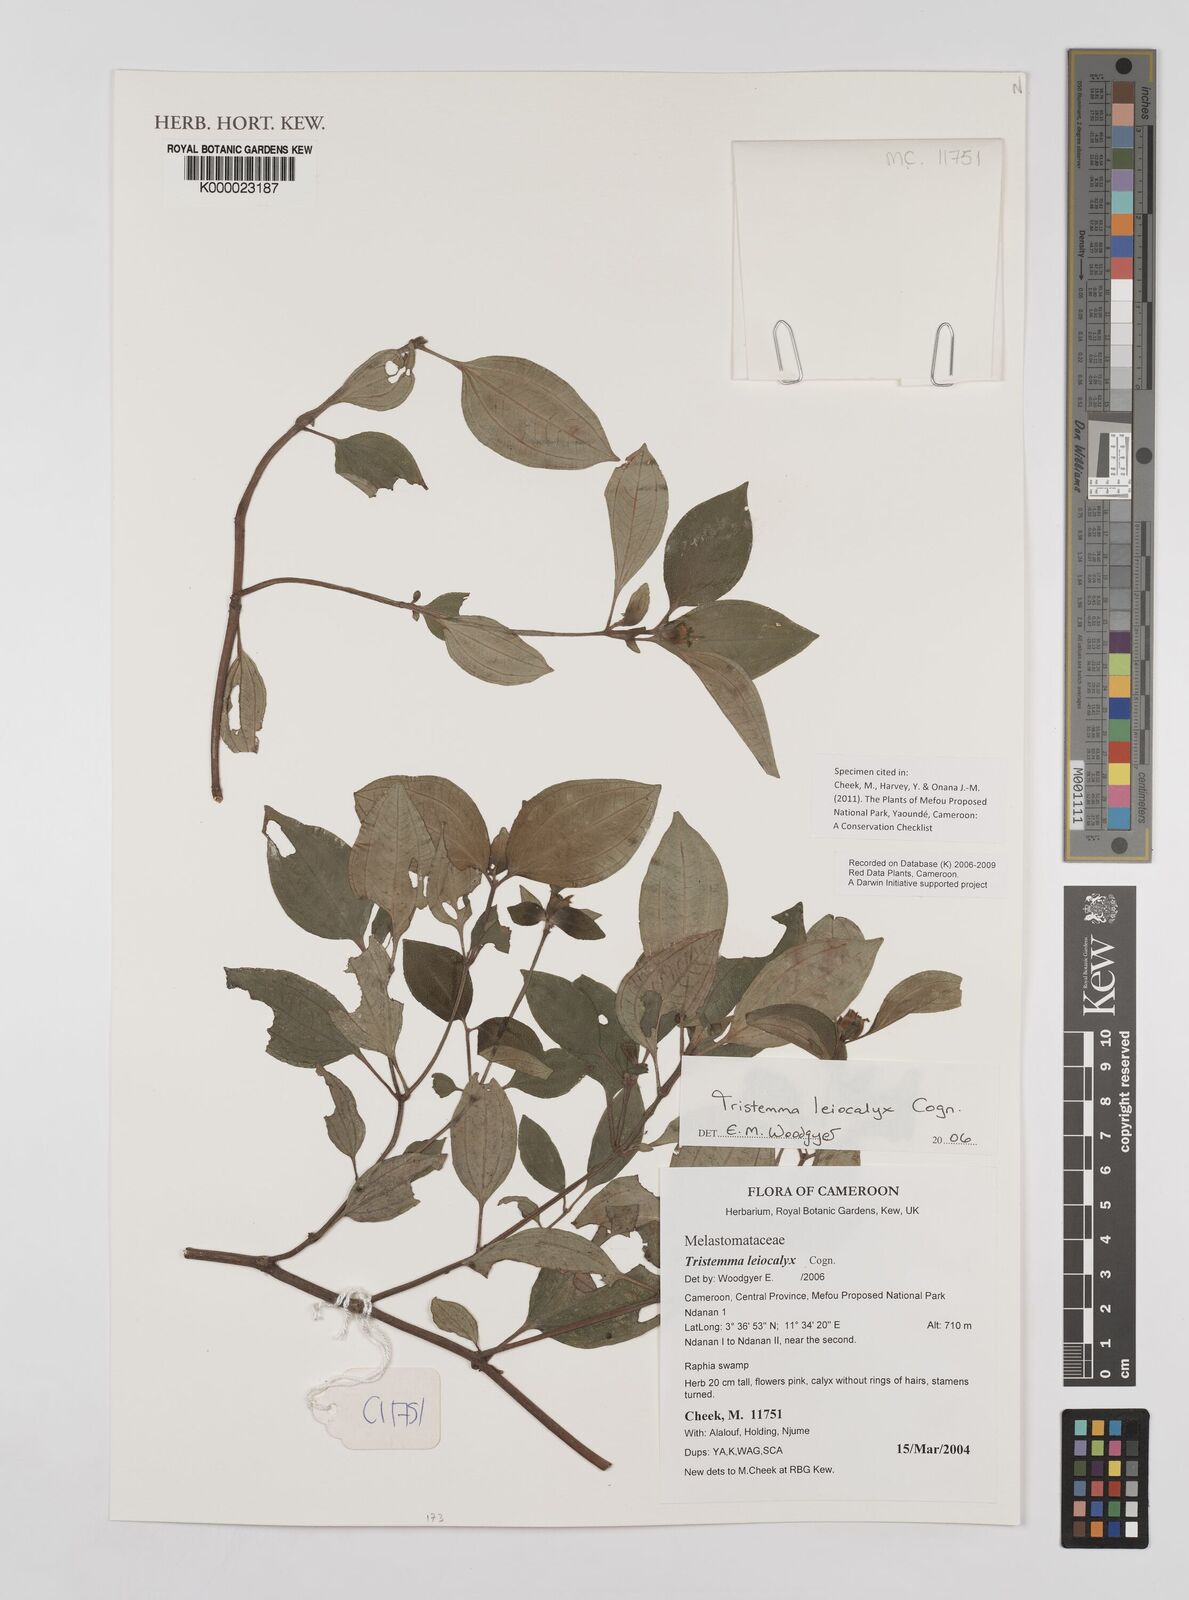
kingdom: Plantae
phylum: Tracheophyta
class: Magnoliopsida
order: Myrtales
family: Melastomataceae
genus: Tristemma
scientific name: Tristemma leiocalyx
